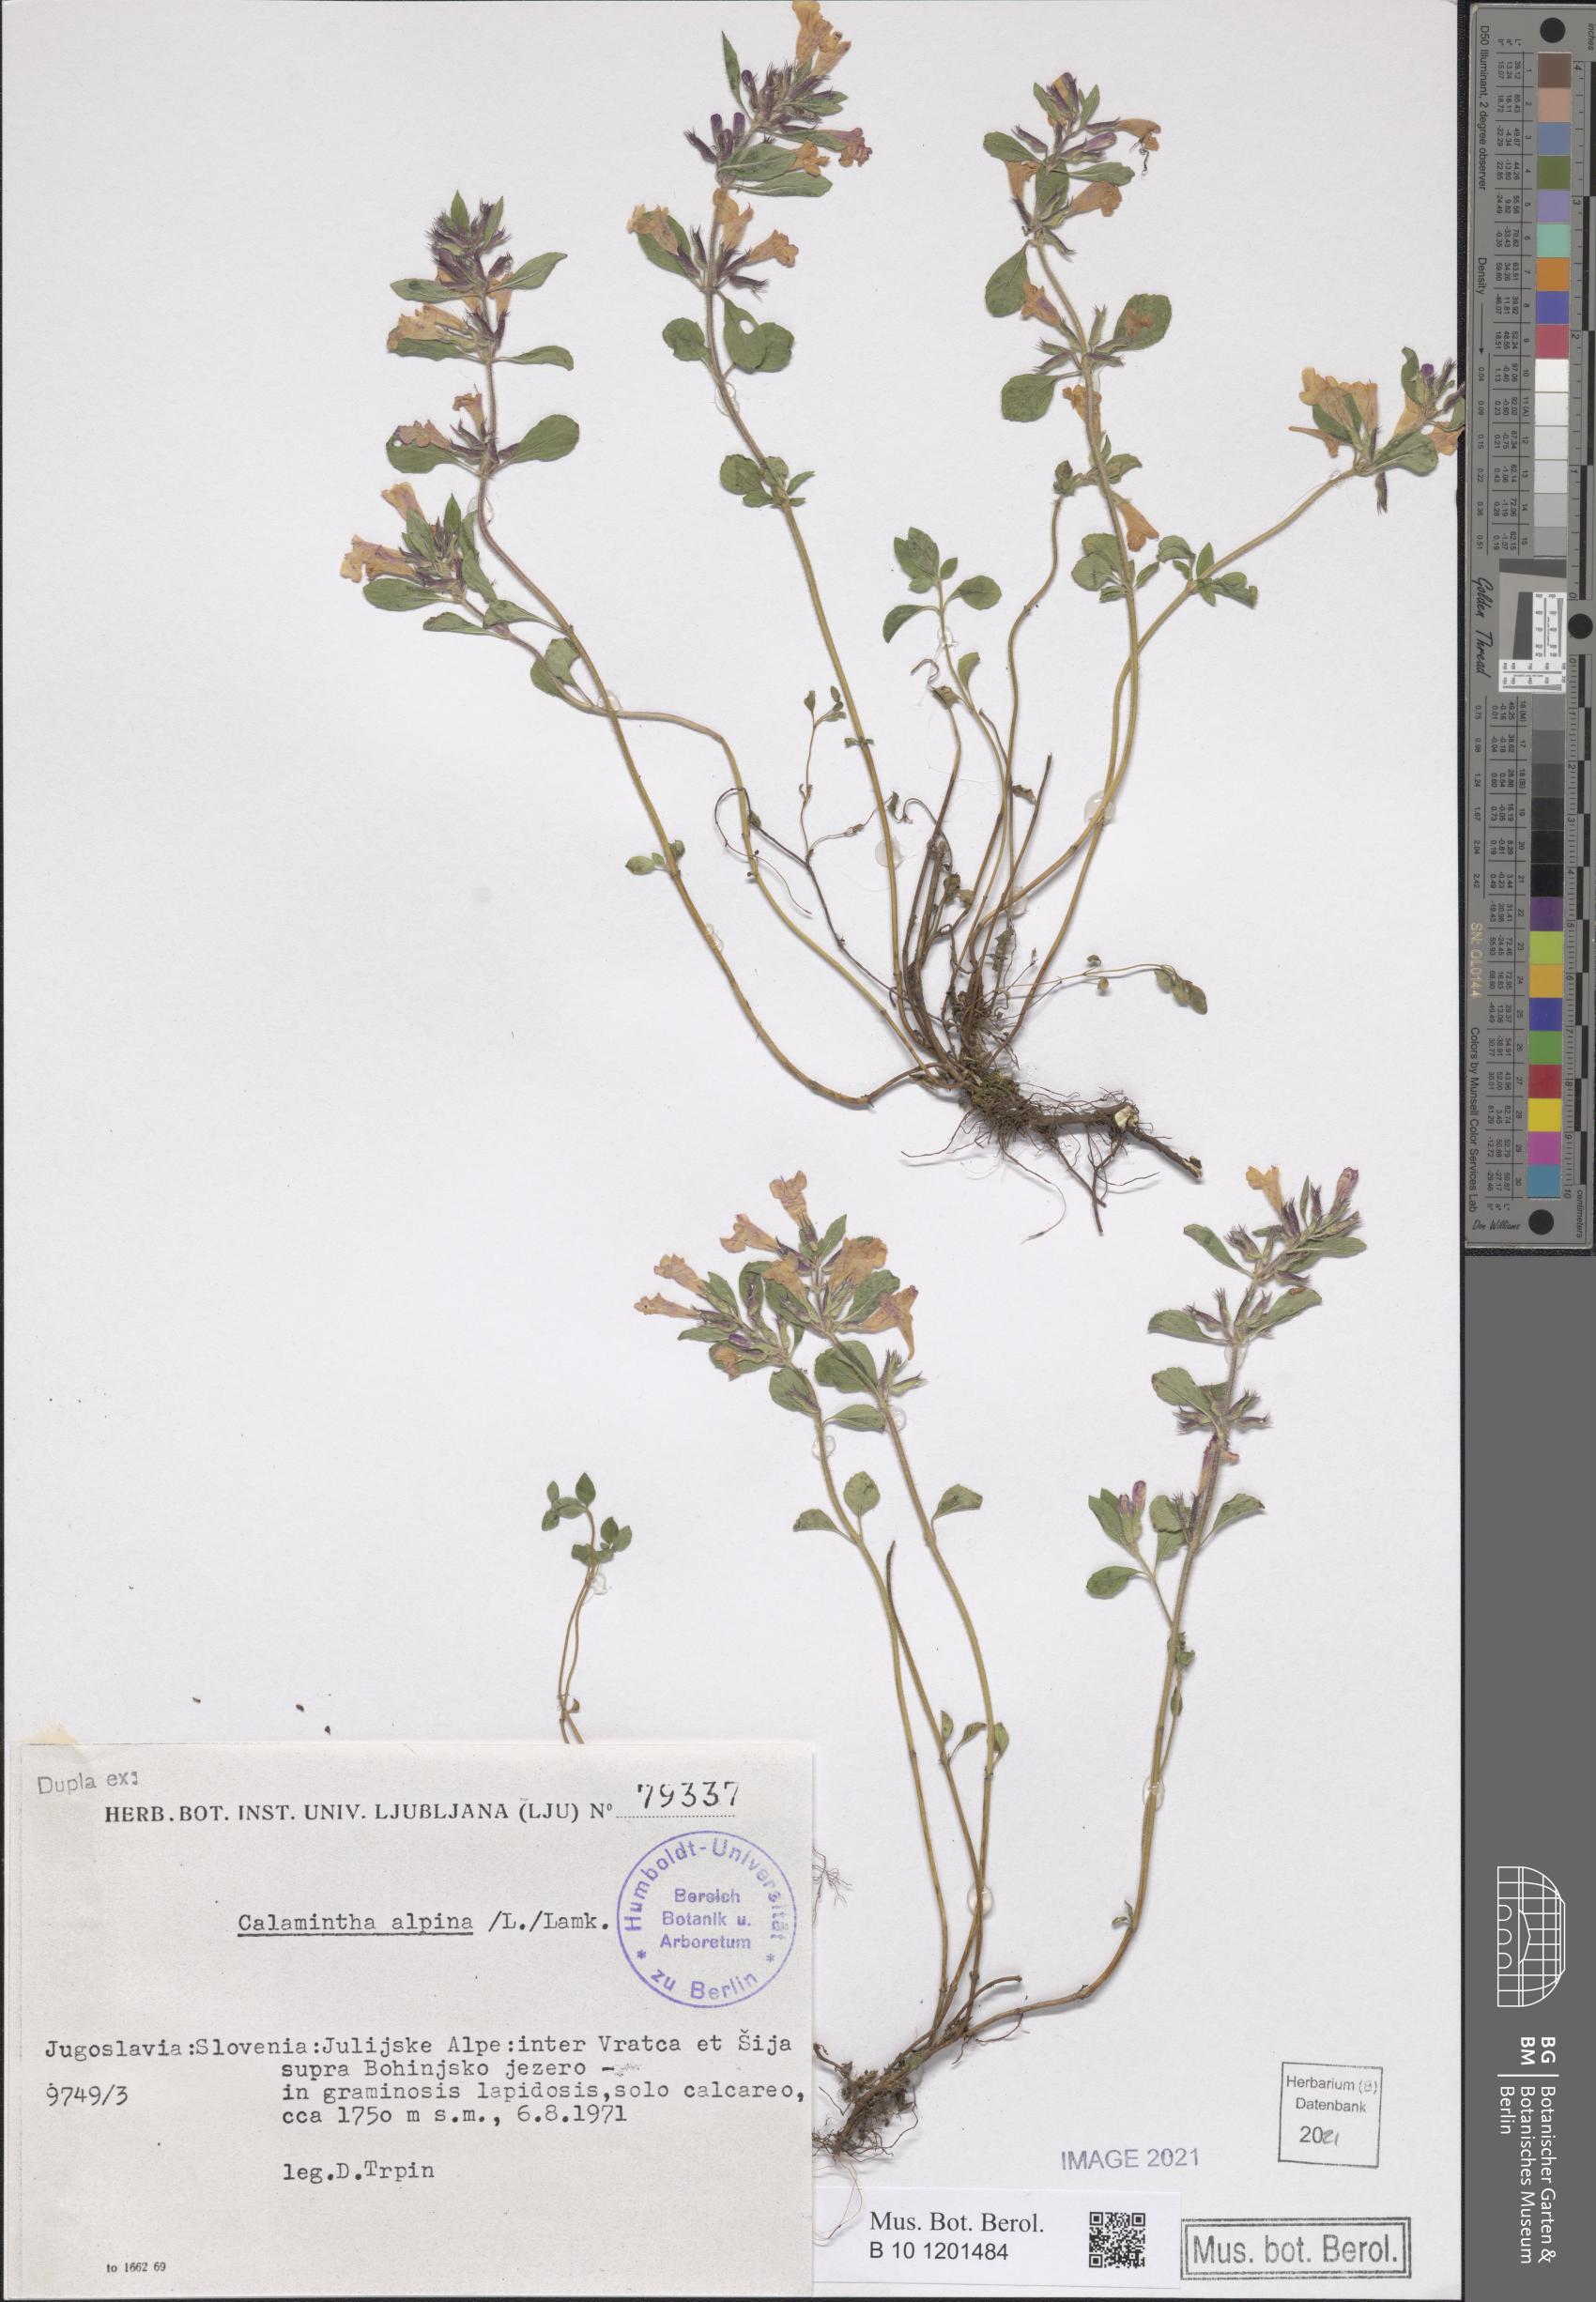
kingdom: Plantae
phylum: Tracheophyta
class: Magnoliopsida
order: Lamiales
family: Lamiaceae
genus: Clinopodium
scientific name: Clinopodium alpinum
